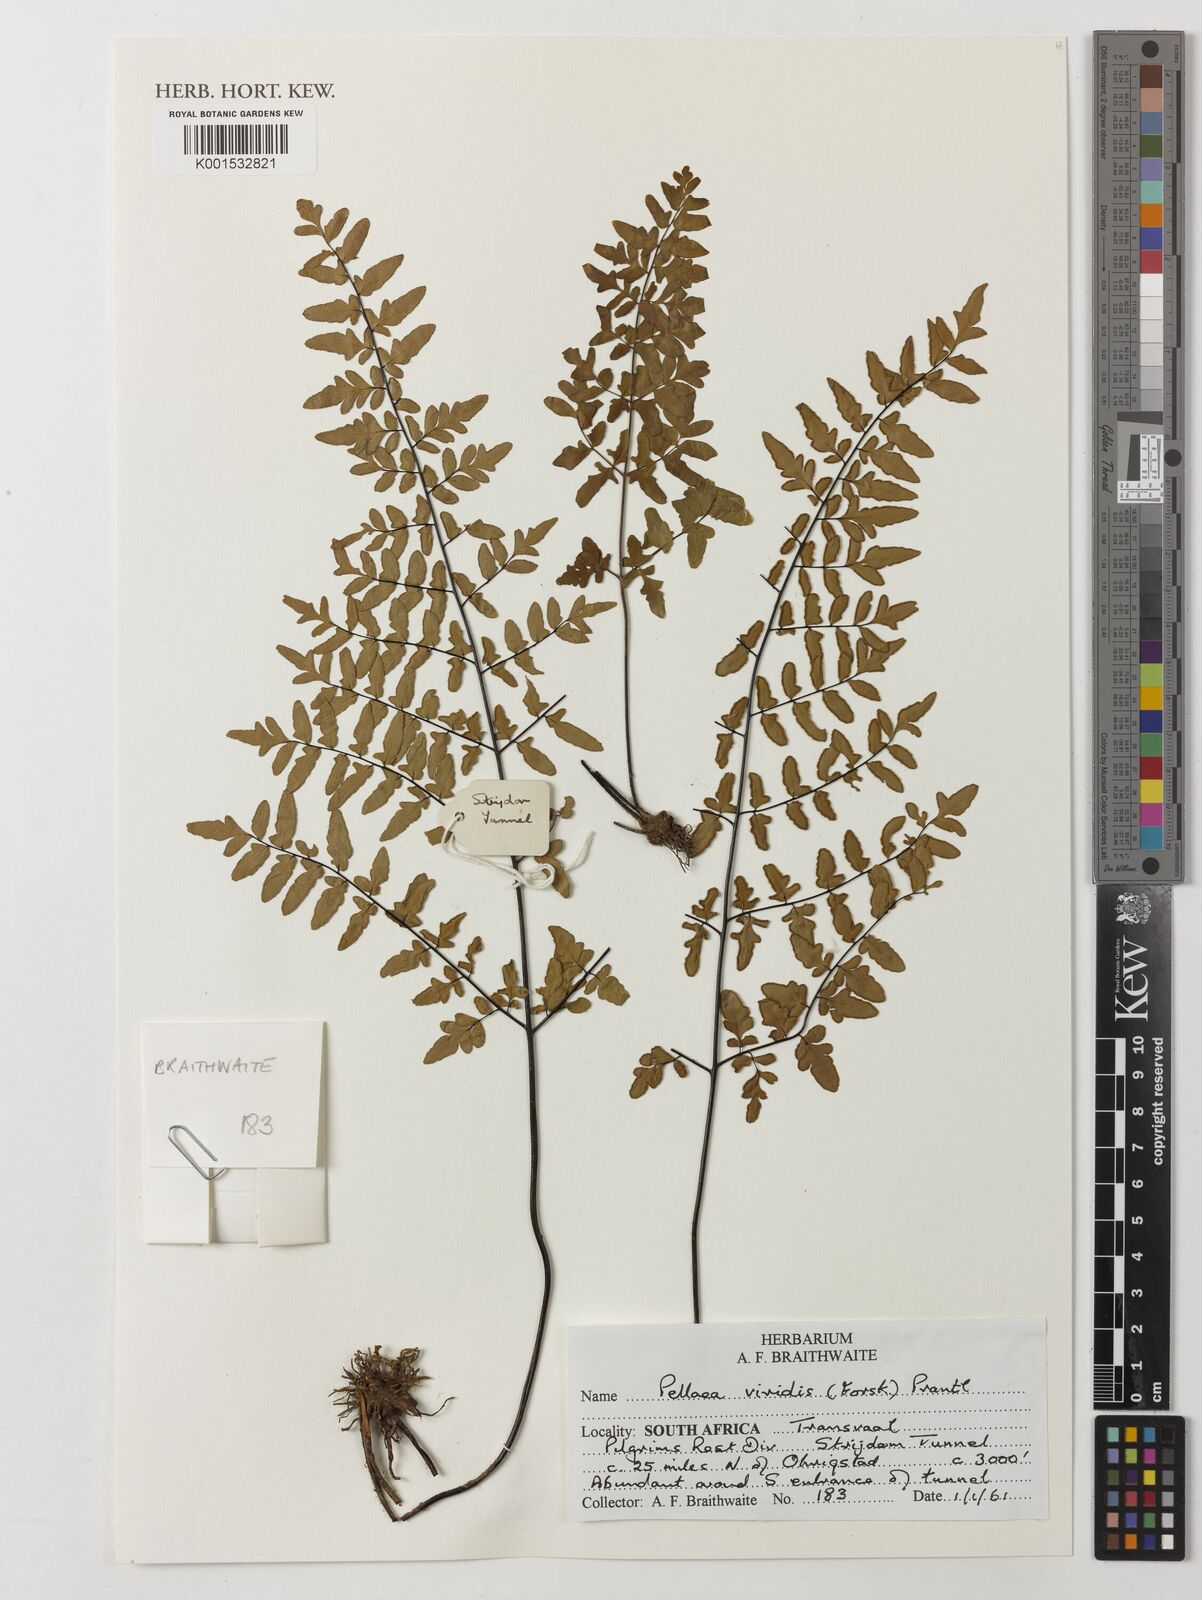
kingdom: Plantae
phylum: Tracheophyta
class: Polypodiopsida
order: Polypodiales
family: Pteridaceae
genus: Cheilanthes
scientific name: Cheilanthes viridis
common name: Green cliffbrake
